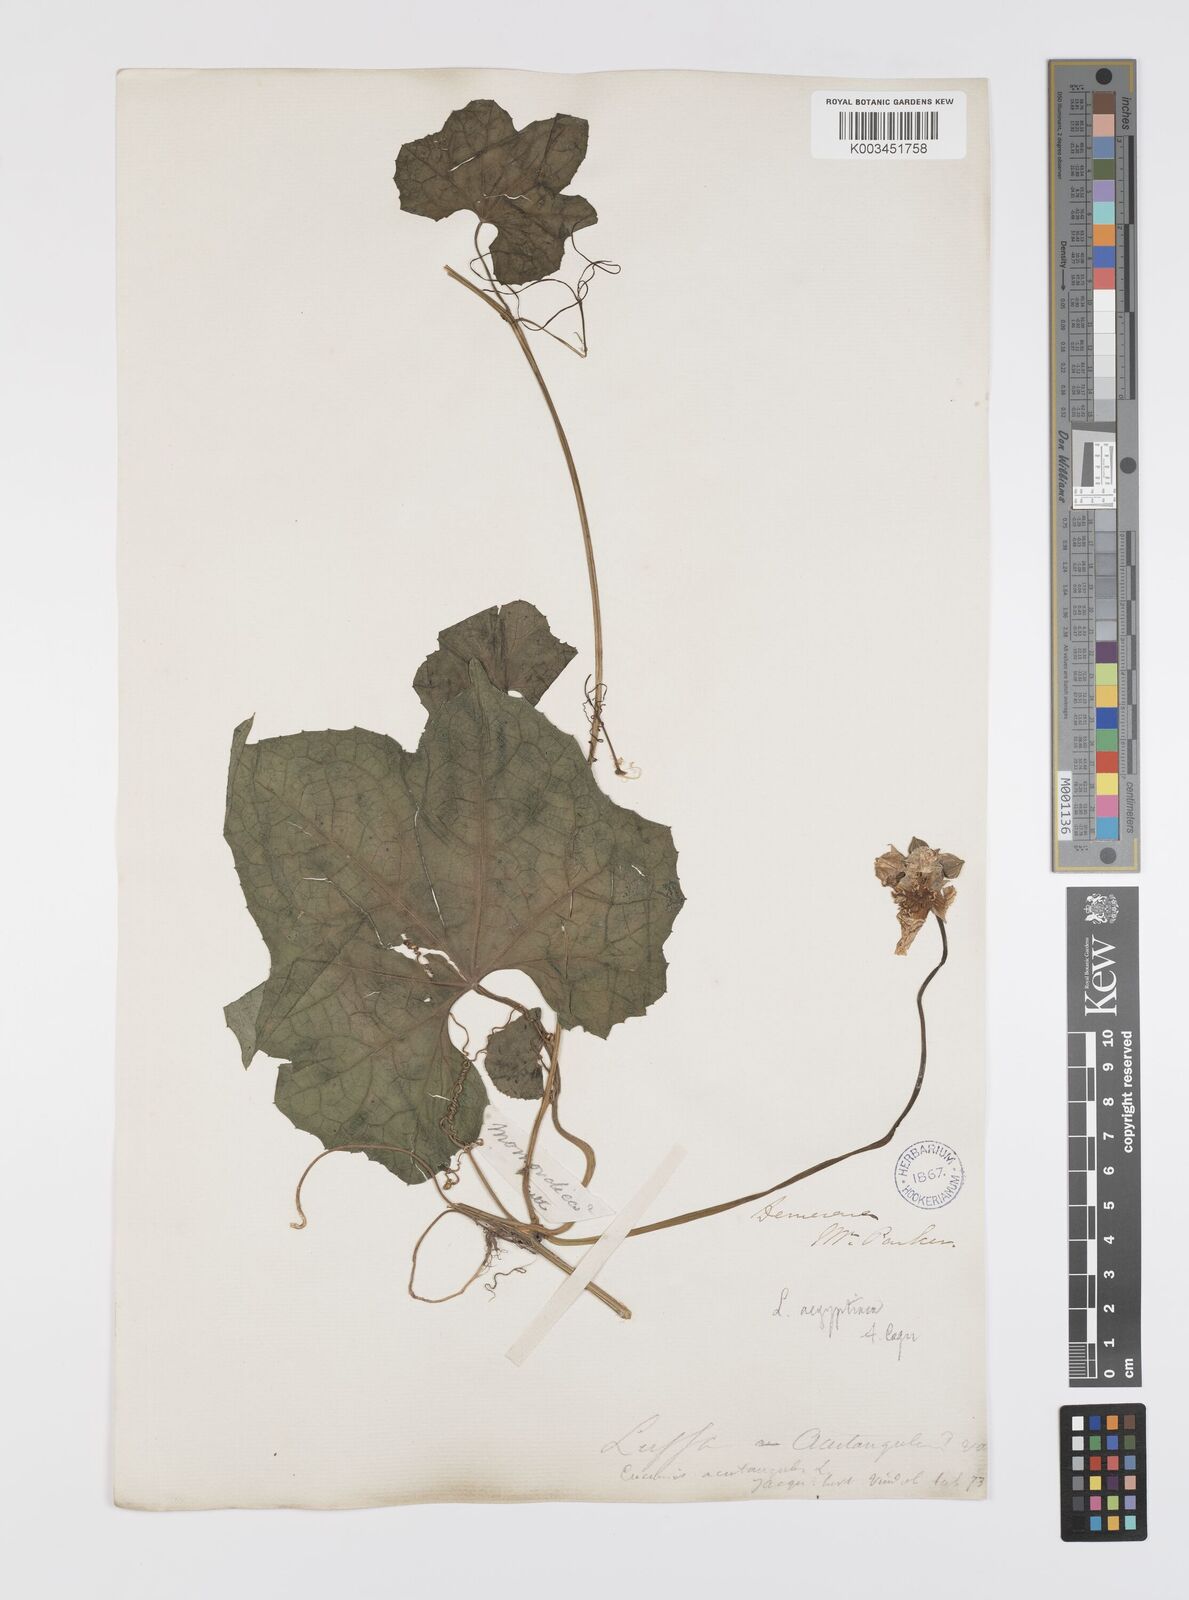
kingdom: Plantae
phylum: Tracheophyta
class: Magnoliopsida
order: Cucurbitales
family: Cucurbitaceae
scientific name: Cucurbitaceae
